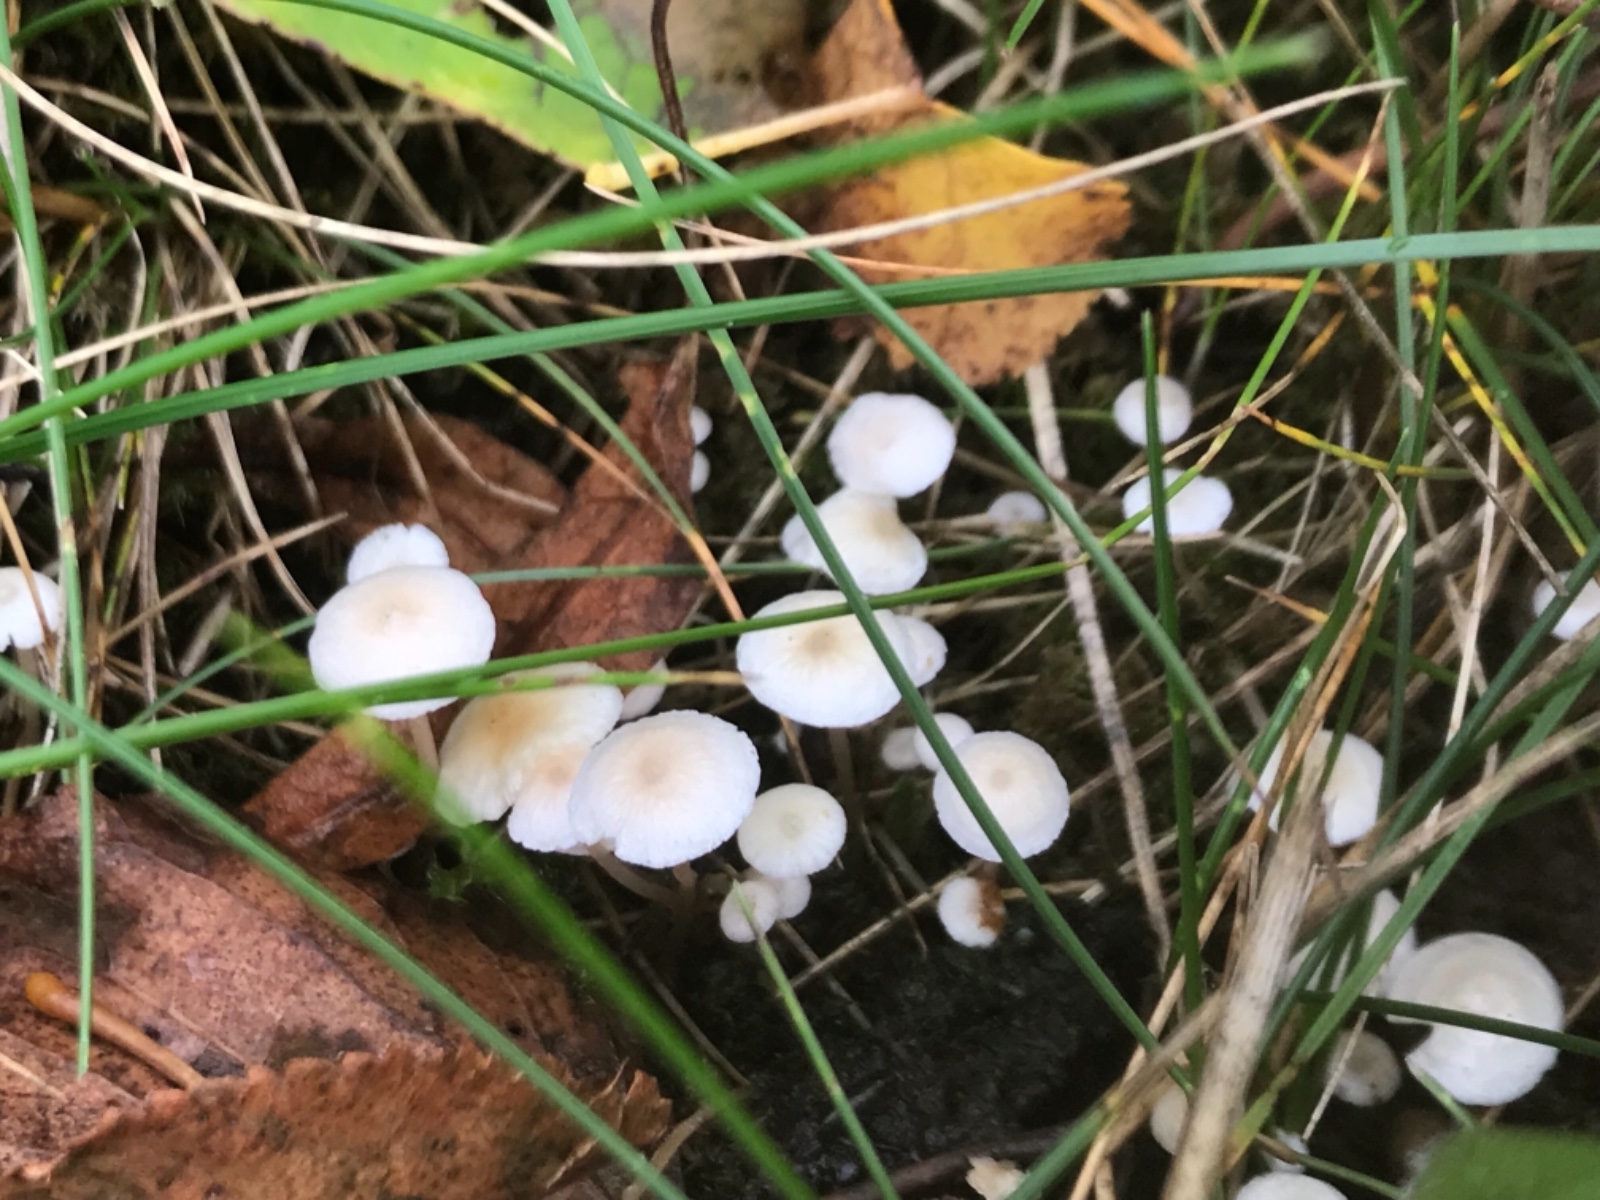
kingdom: Fungi
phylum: Basidiomycota
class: Agaricomycetes
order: Agaricales
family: Tricholomataceae
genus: Collybia
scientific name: Collybia cirrhata
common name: silke-lighat
